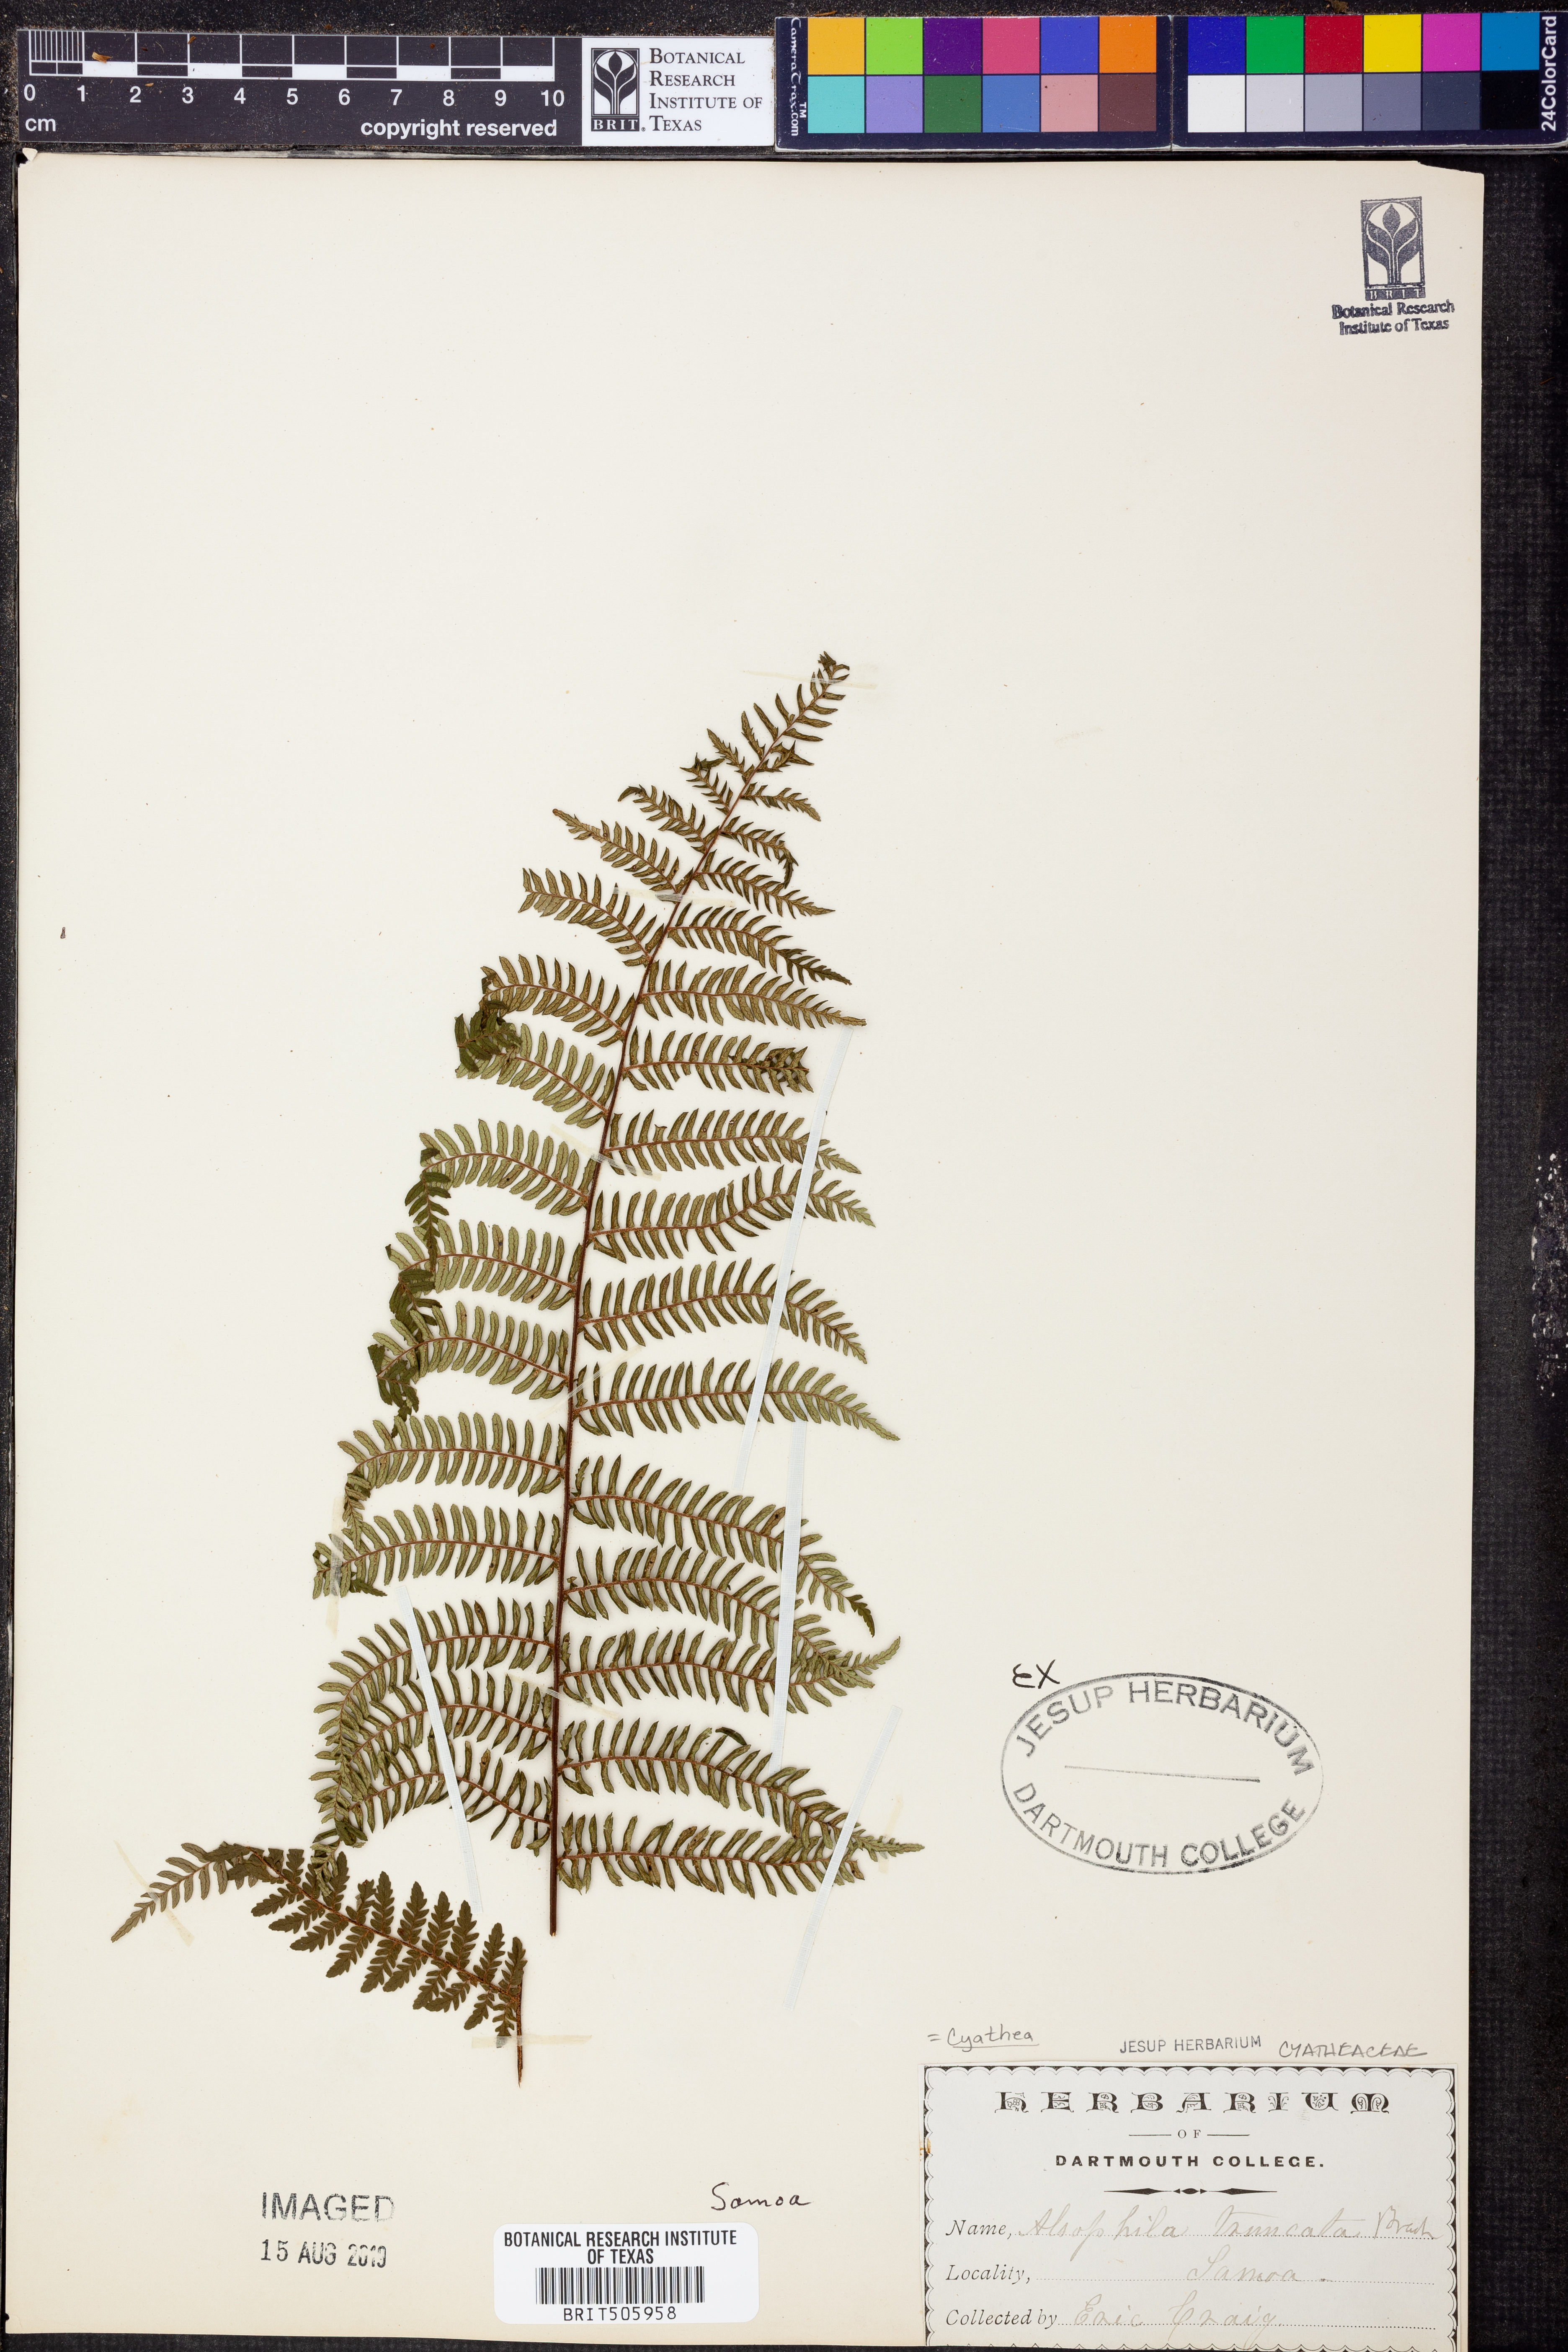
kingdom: Plantae
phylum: Tracheophyta
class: Polypodiopsida
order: Cyatheales
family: Cyatheaceae
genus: Sphaeropteris
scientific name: Sphaeropteris truncata
